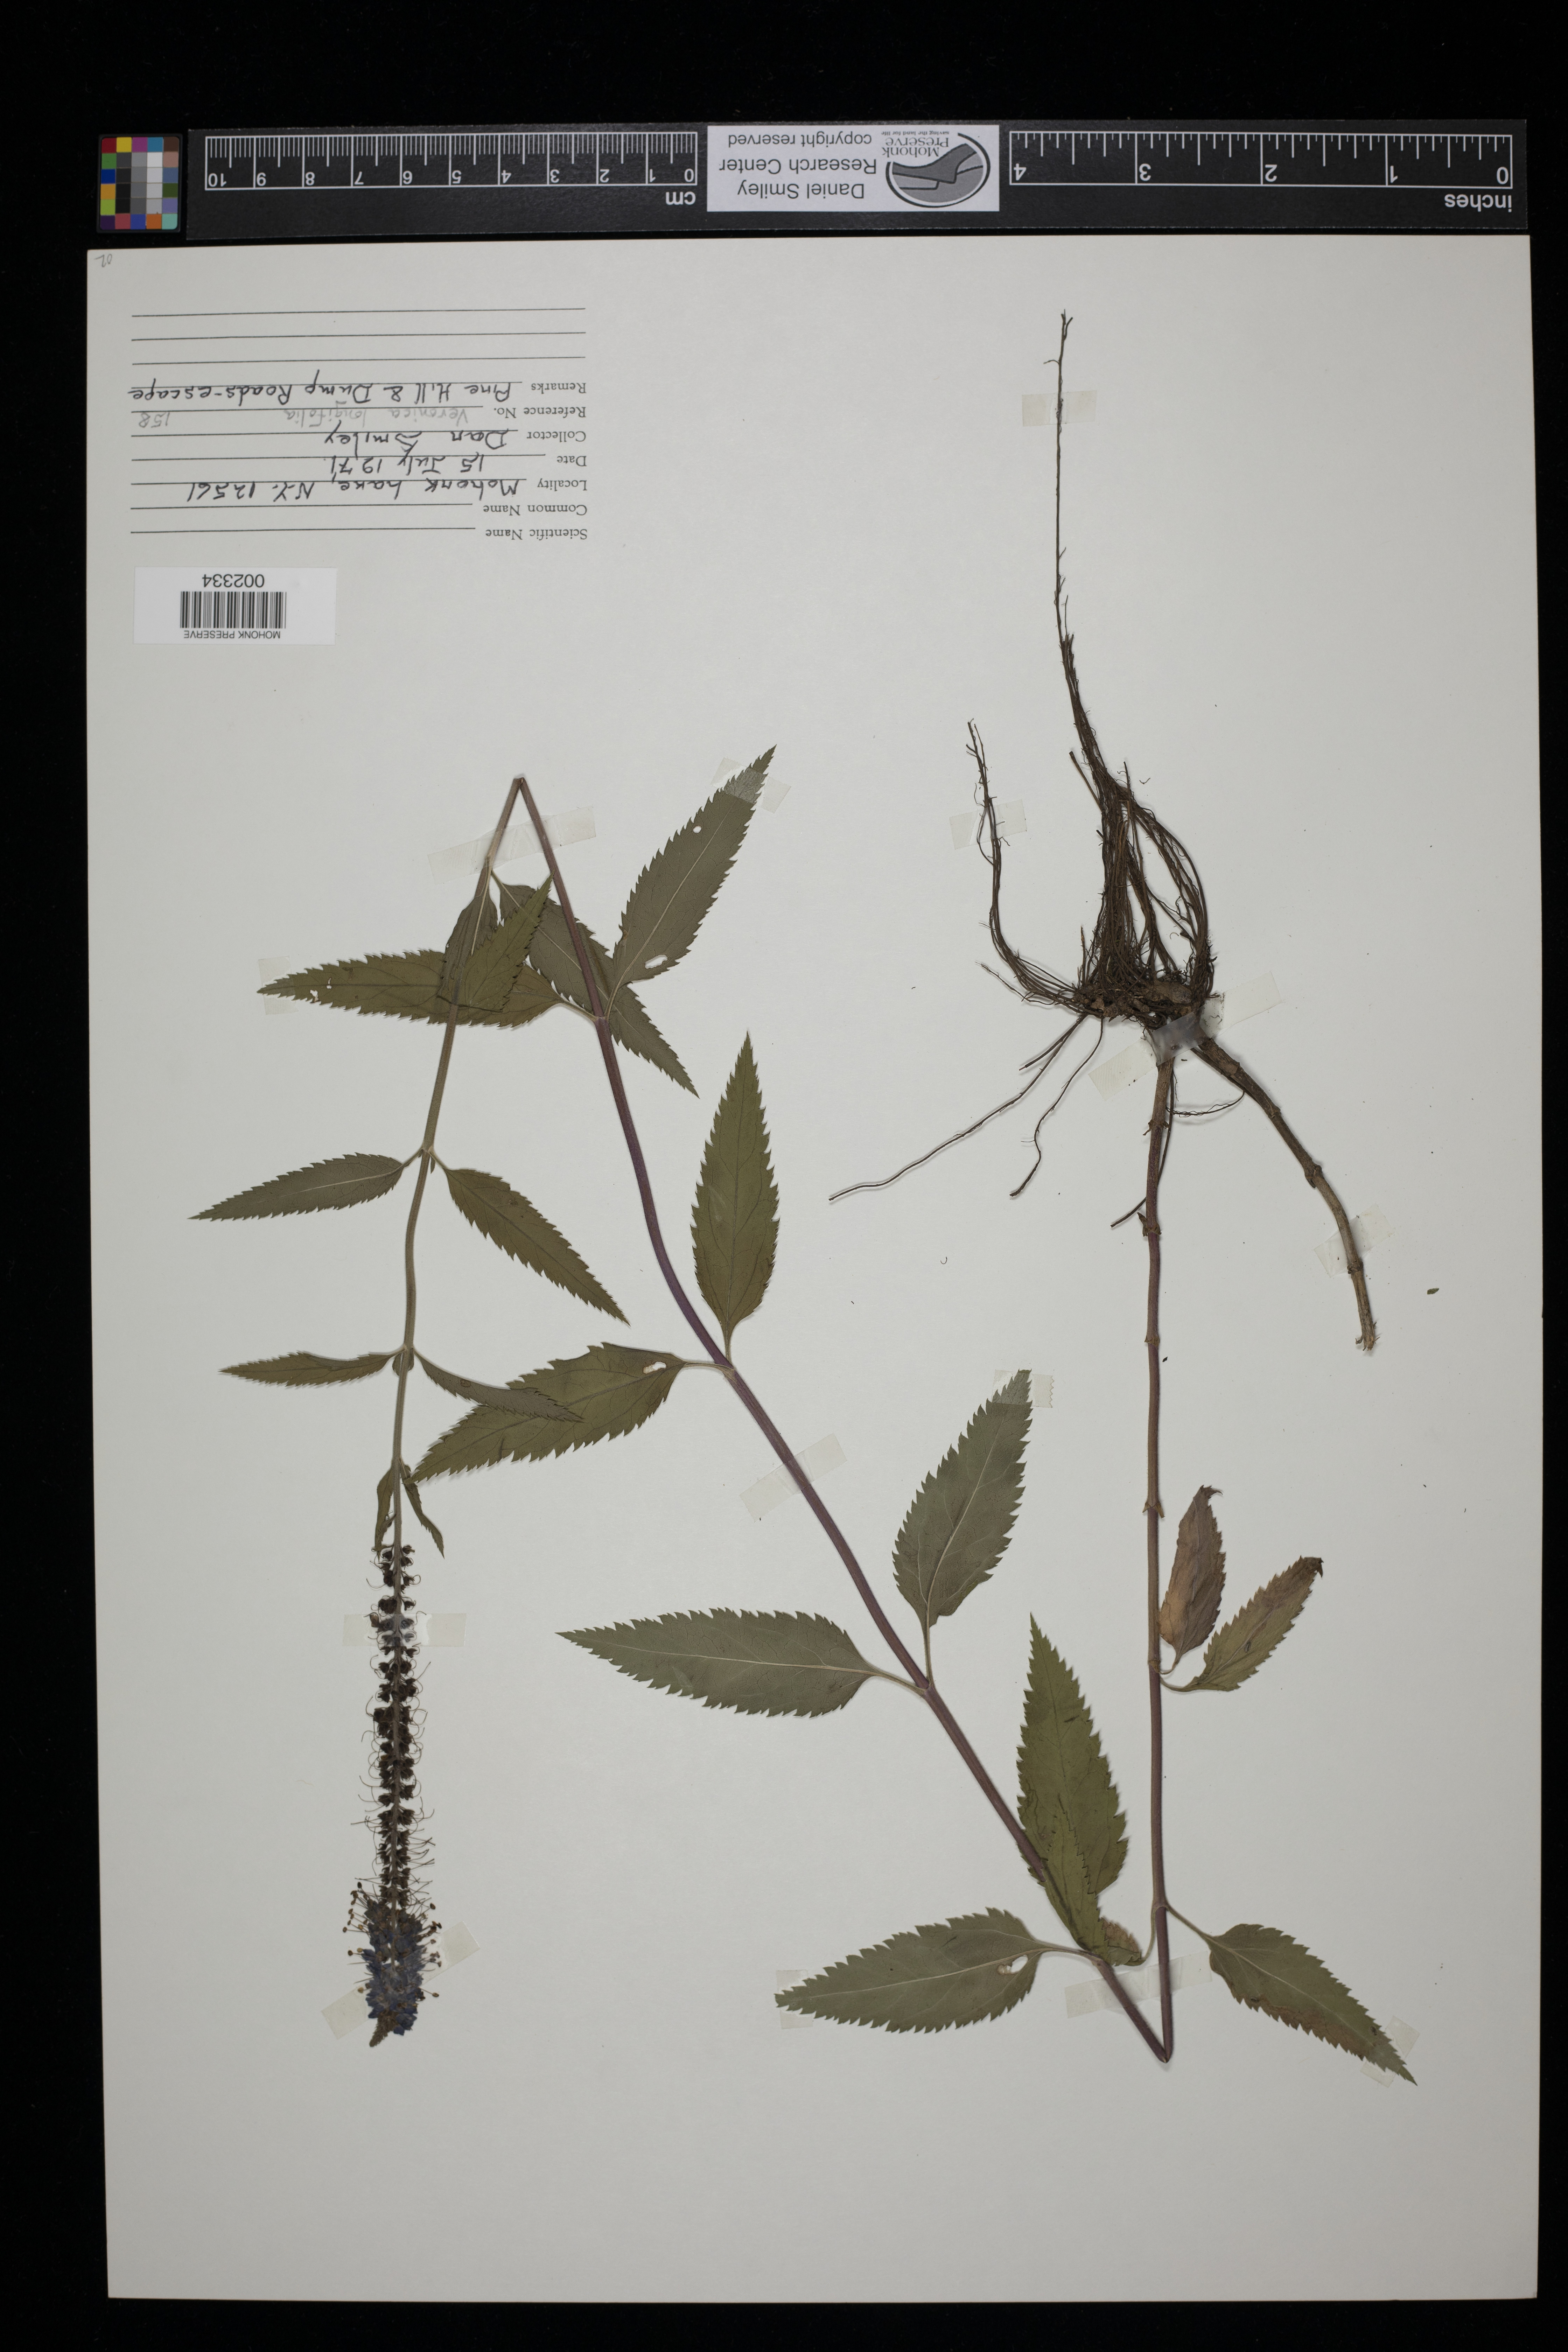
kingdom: Plantae
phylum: Tracheophyta
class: Magnoliopsida
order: Lamiales
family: Plantaginaceae
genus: Veronica
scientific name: Veronica longifolia
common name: Garden speedwell
